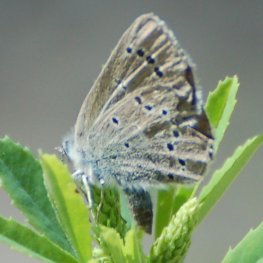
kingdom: Animalia
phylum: Arthropoda
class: Insecta
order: Lepidoptera
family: Lycaenidae
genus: Glaucopsyche
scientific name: Glaucopsyche lygdamus
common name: Silvery Blue
